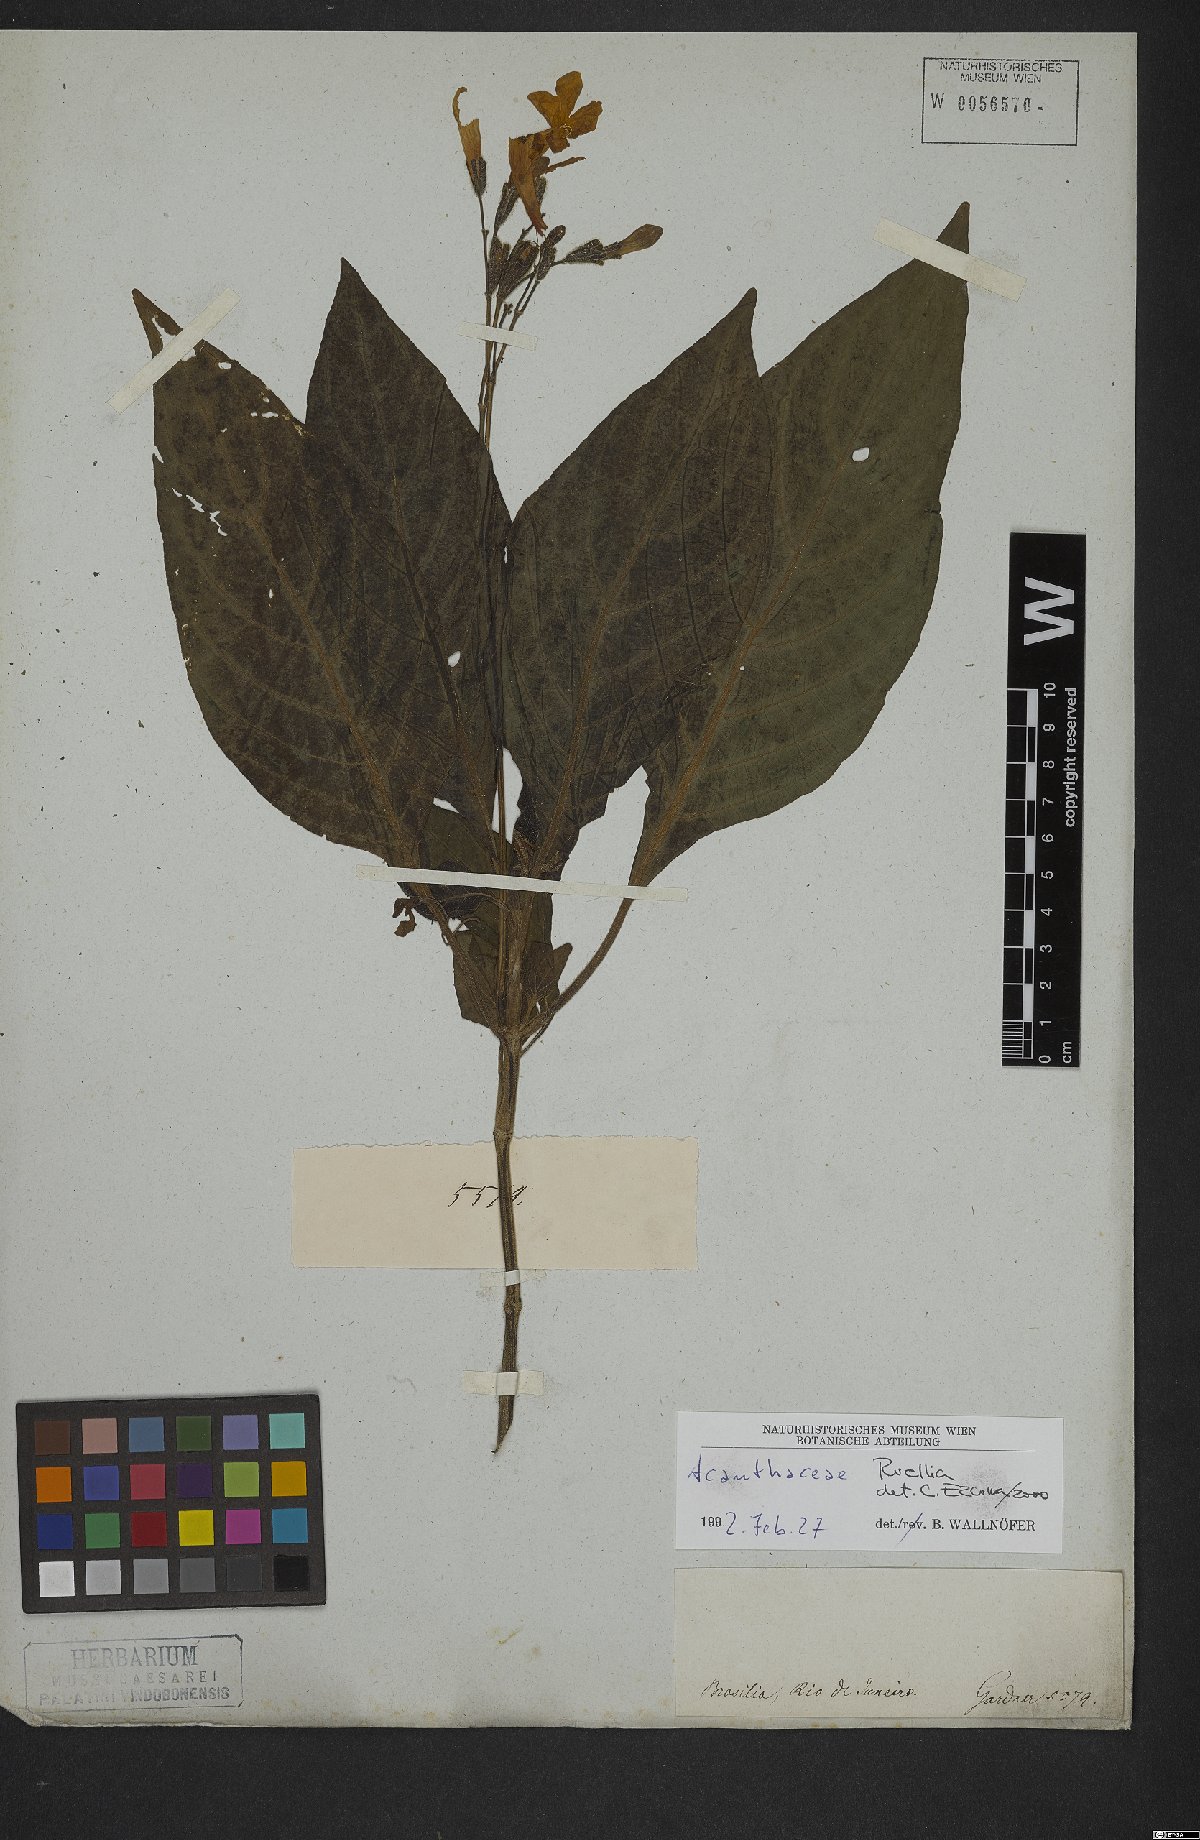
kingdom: Plantae
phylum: Tracheophyta
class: Magnoliopsida
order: Lamiales
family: Acanthaceae
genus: Ruellia
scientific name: Ruellia
